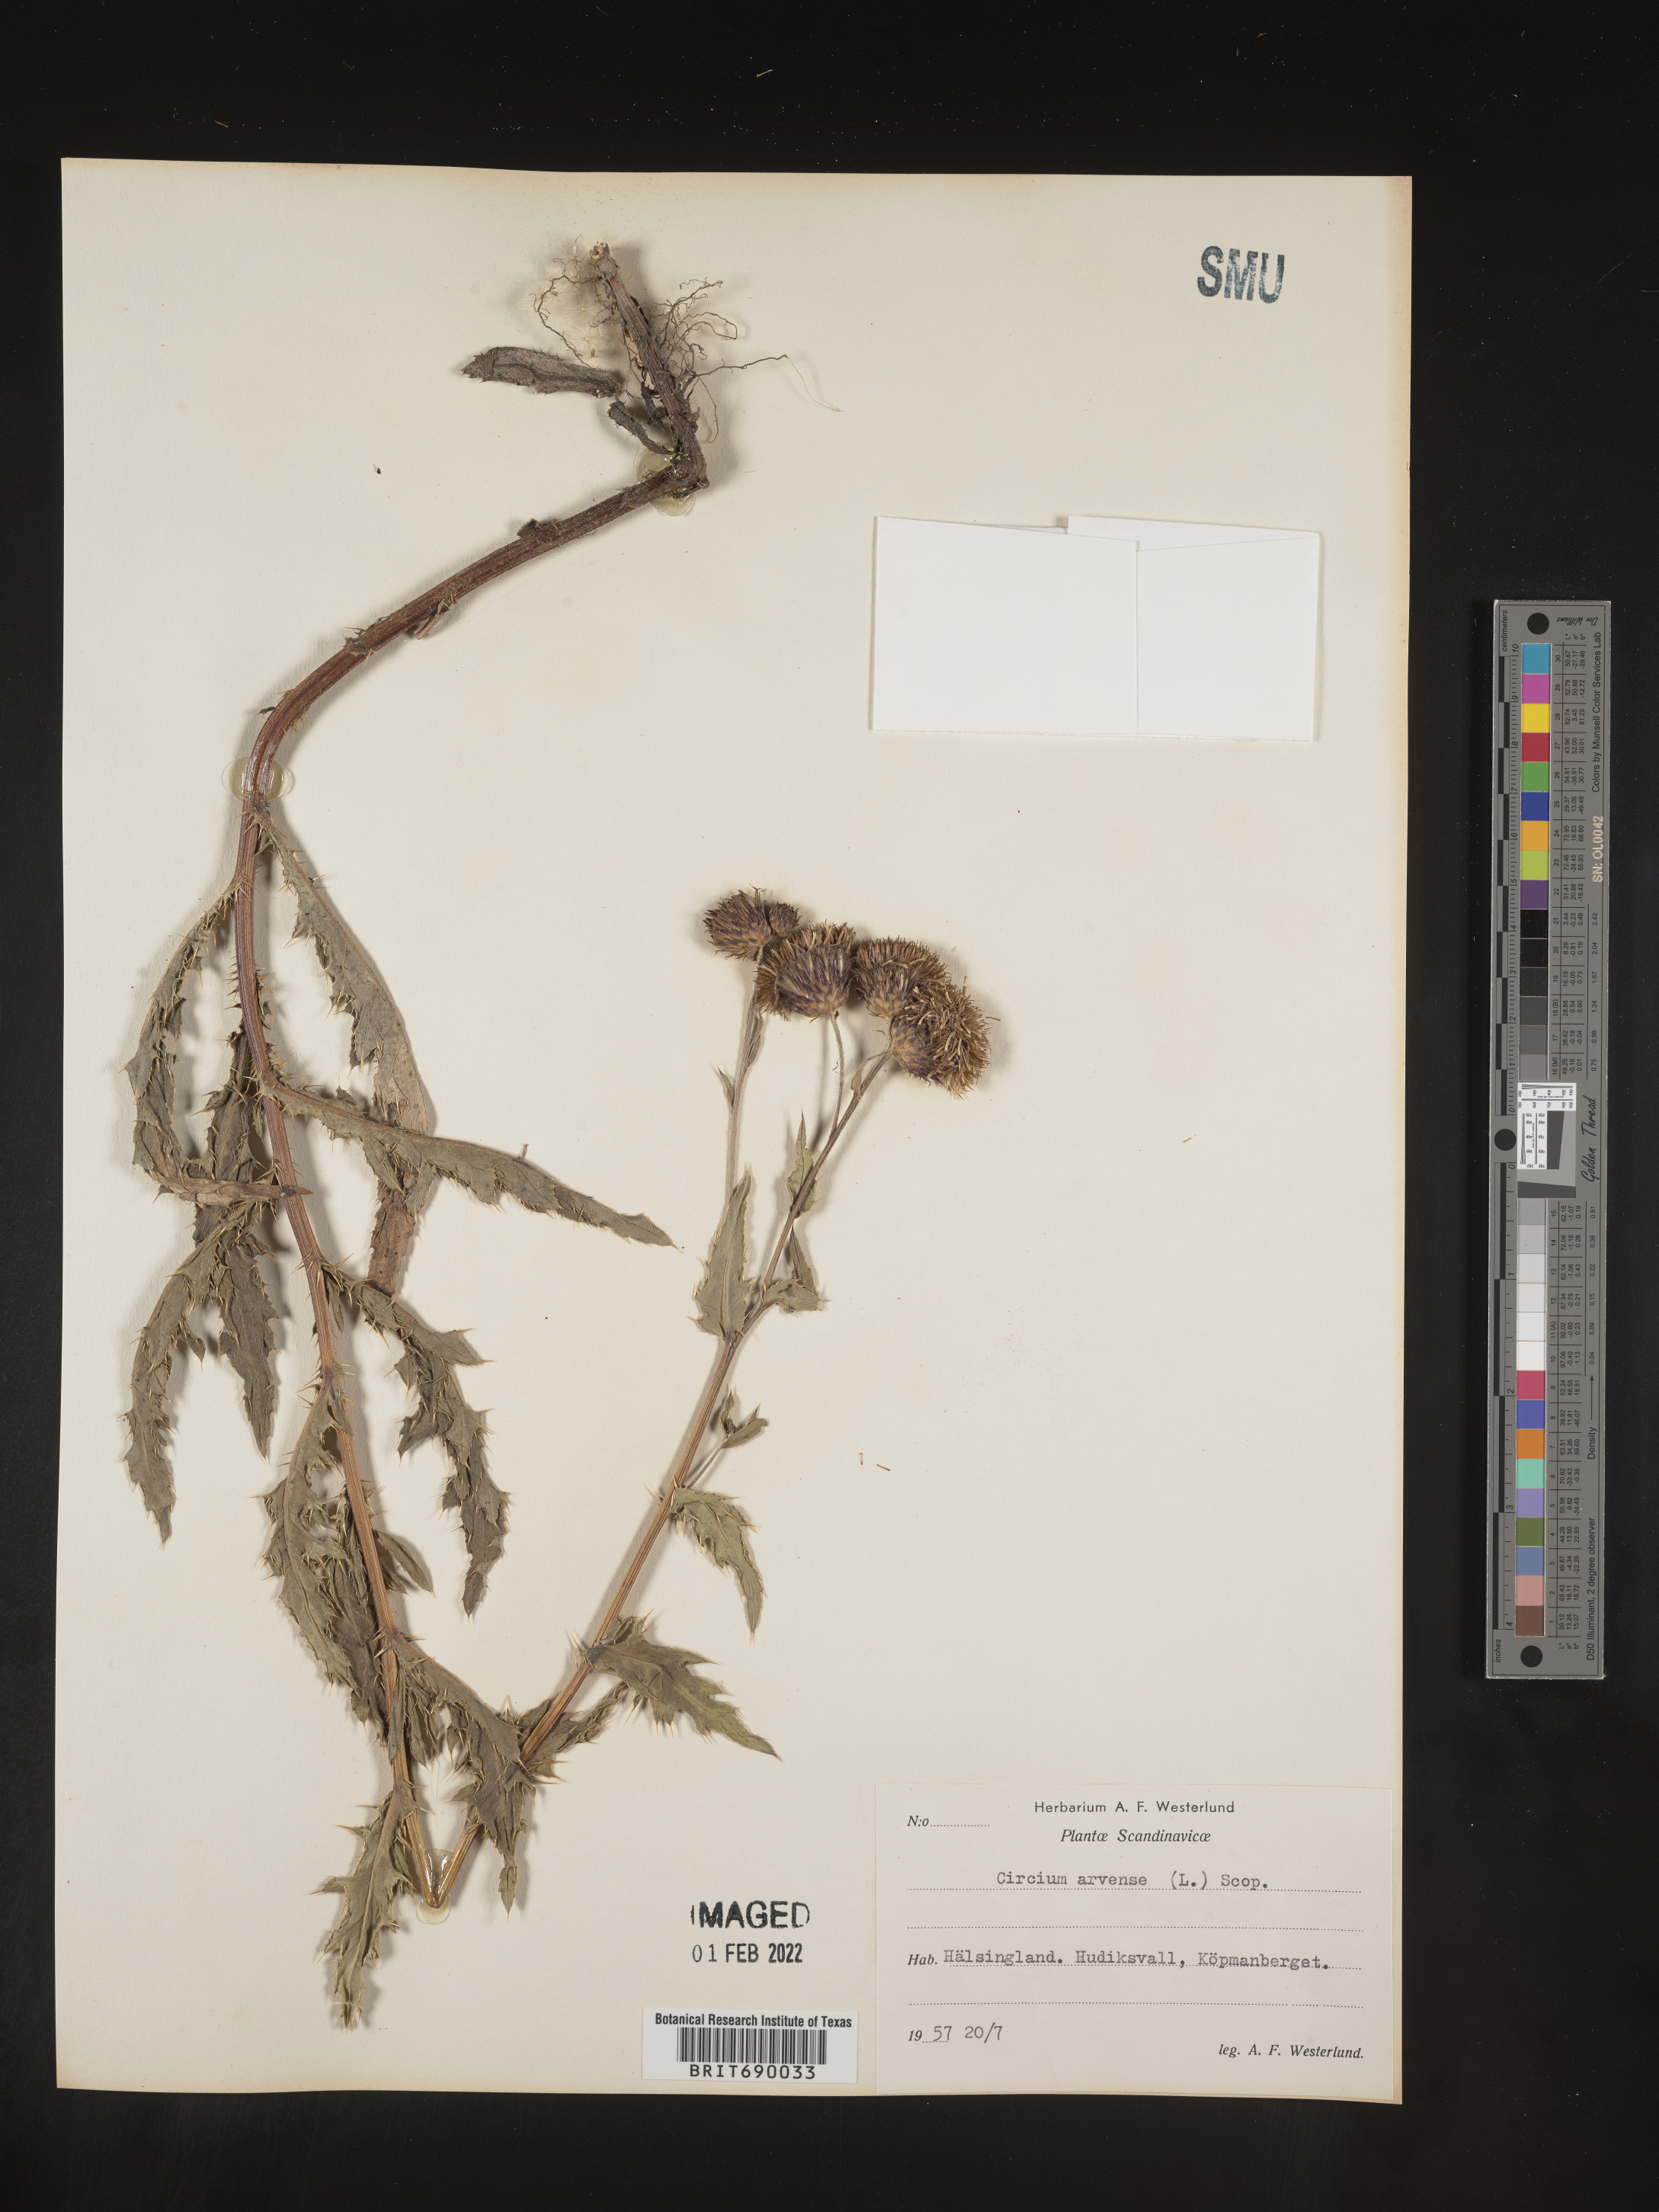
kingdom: Plantae
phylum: Tracheophyta
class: Magnoliopsida
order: Asterales
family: Asteraceae
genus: Cirsium
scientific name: Cirsium
